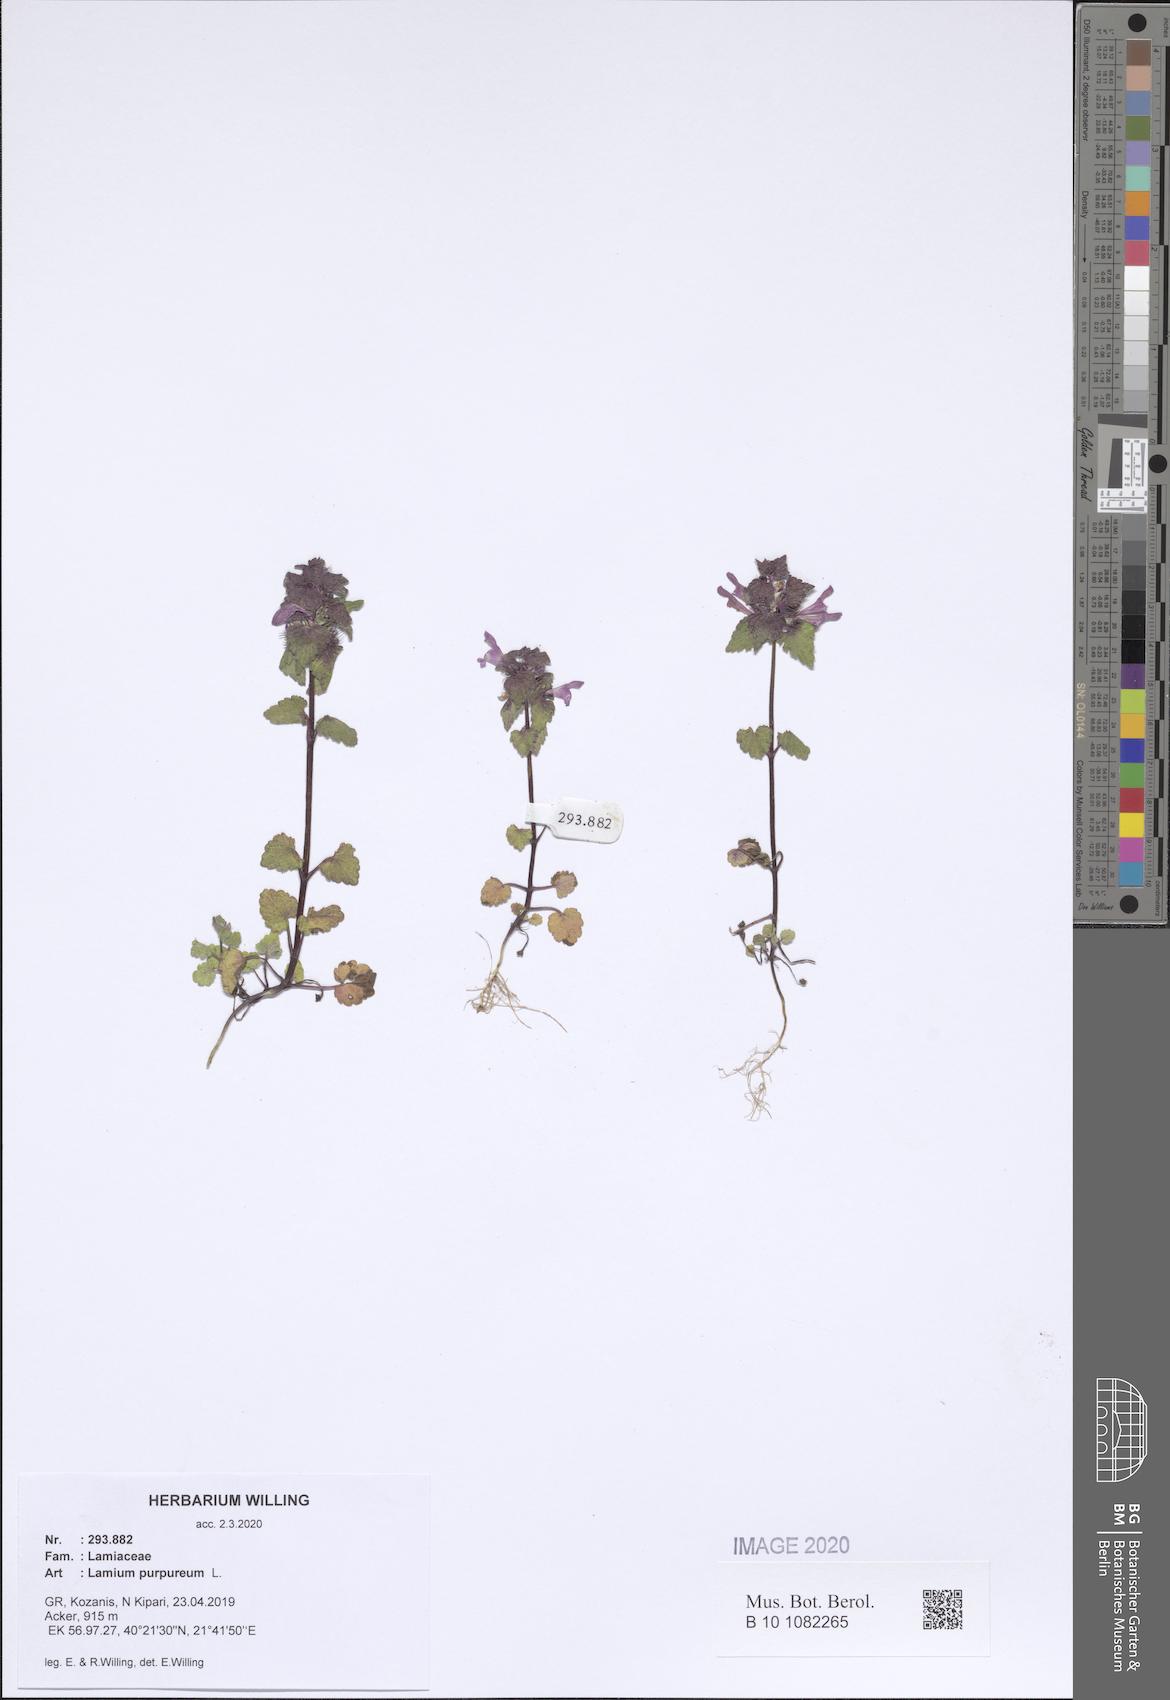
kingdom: Plantae
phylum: Tracheophyta
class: Magnoliopsida
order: Lamiales
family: Lamiaceae
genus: Lamium
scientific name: Lamium purpureum
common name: Red dead-nettle
